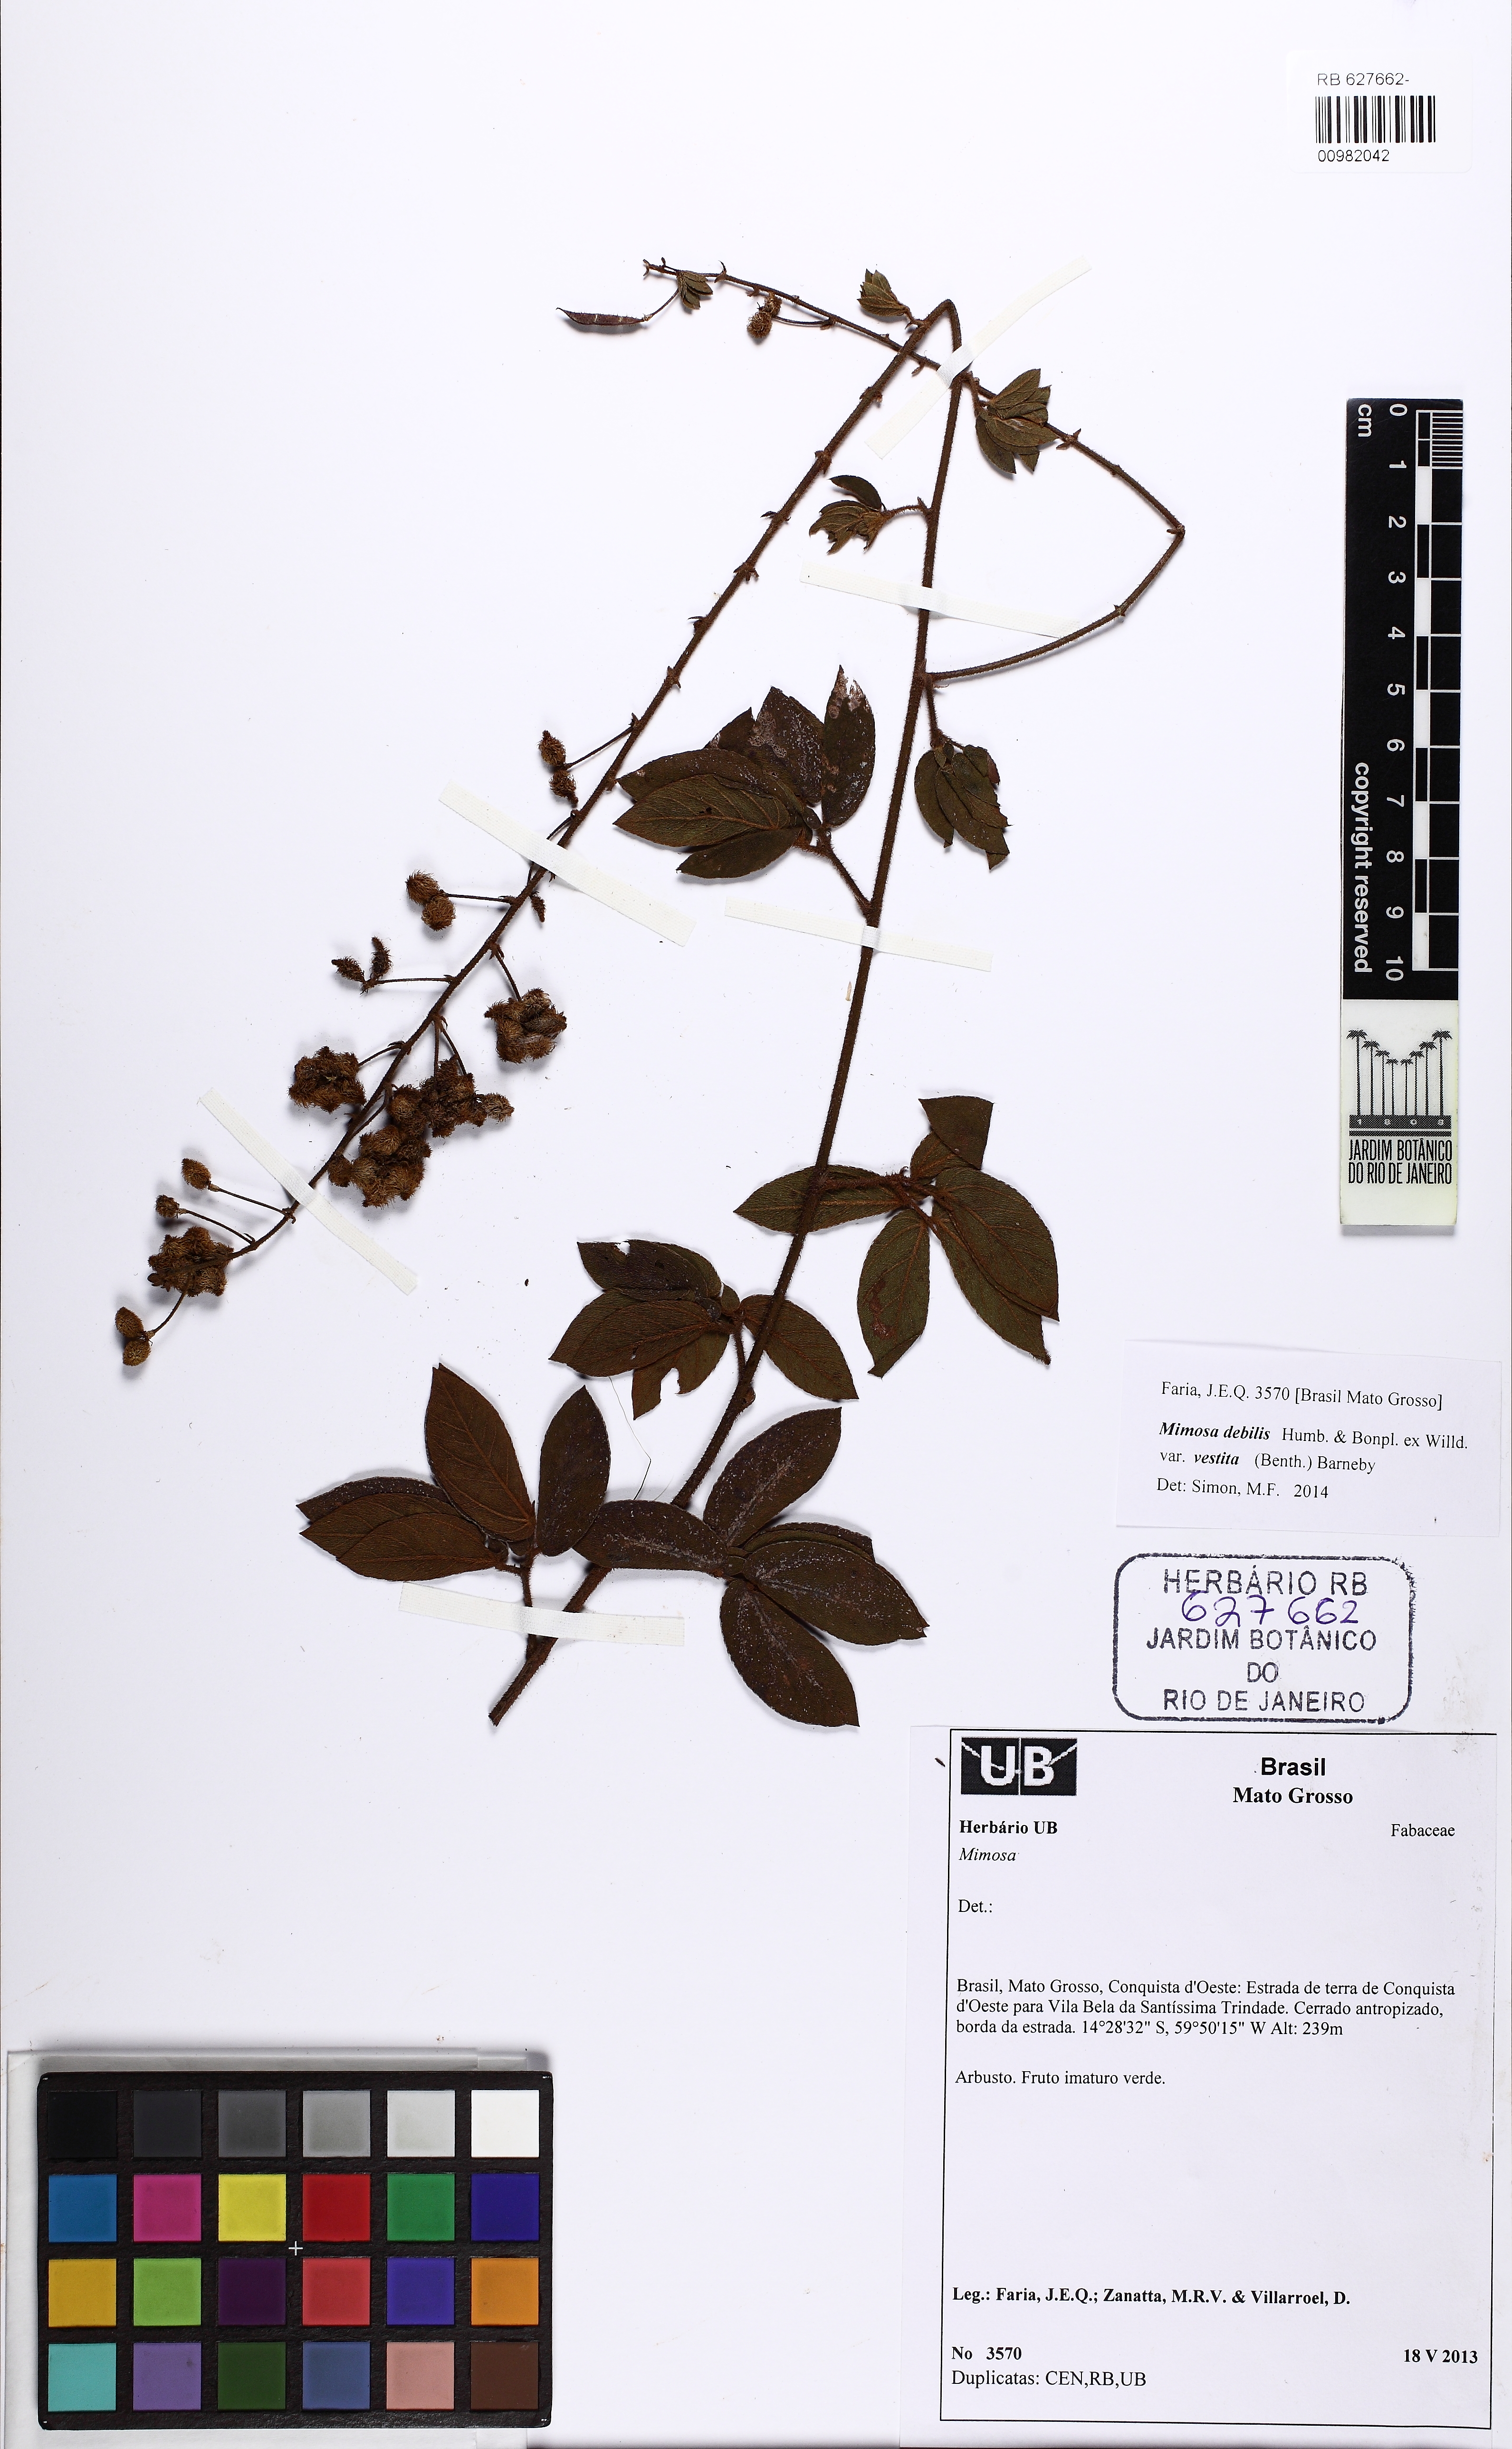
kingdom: Plantae
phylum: Tracheophyta
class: Magnoliopsida
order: Fabales
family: Fabaceae
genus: Mimosa
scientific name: Mimosa debilis
